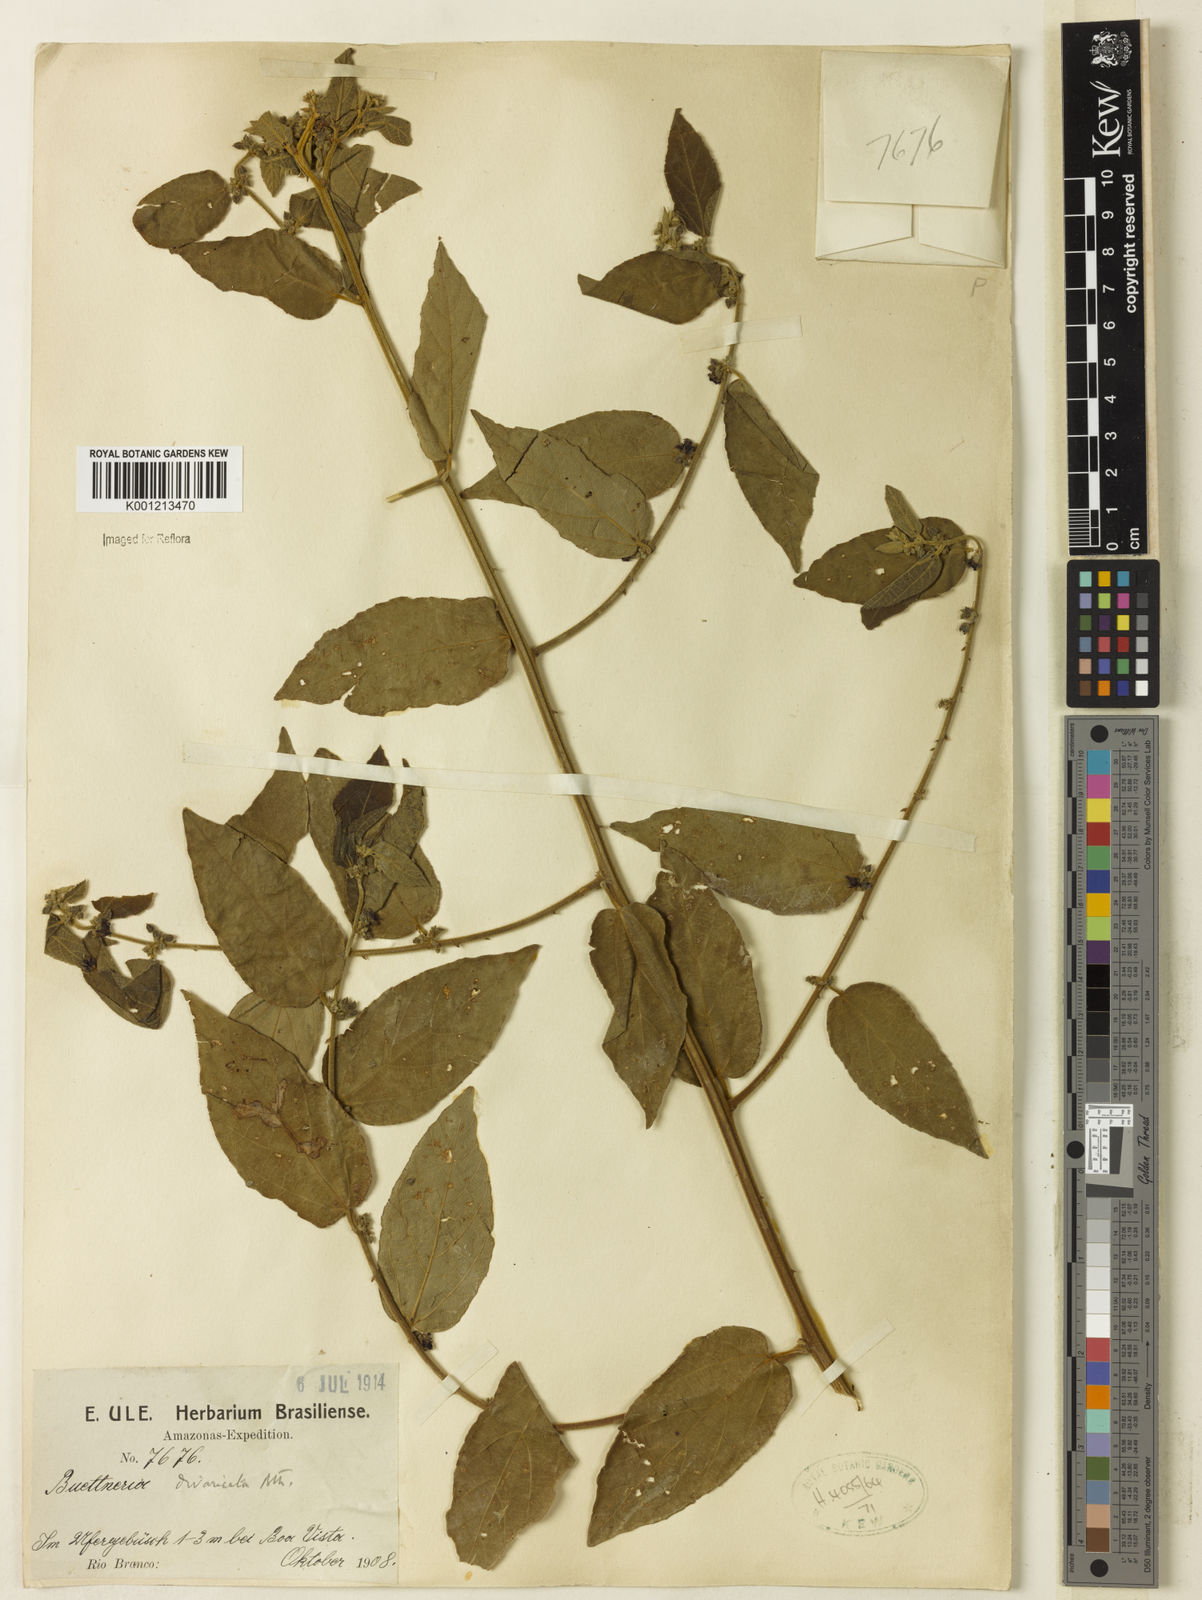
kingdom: Plantae
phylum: Tracheophyta
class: Magnoliopsida
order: Malvales
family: Malvaceae
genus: Byttneria
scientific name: Byttneria divaricata
